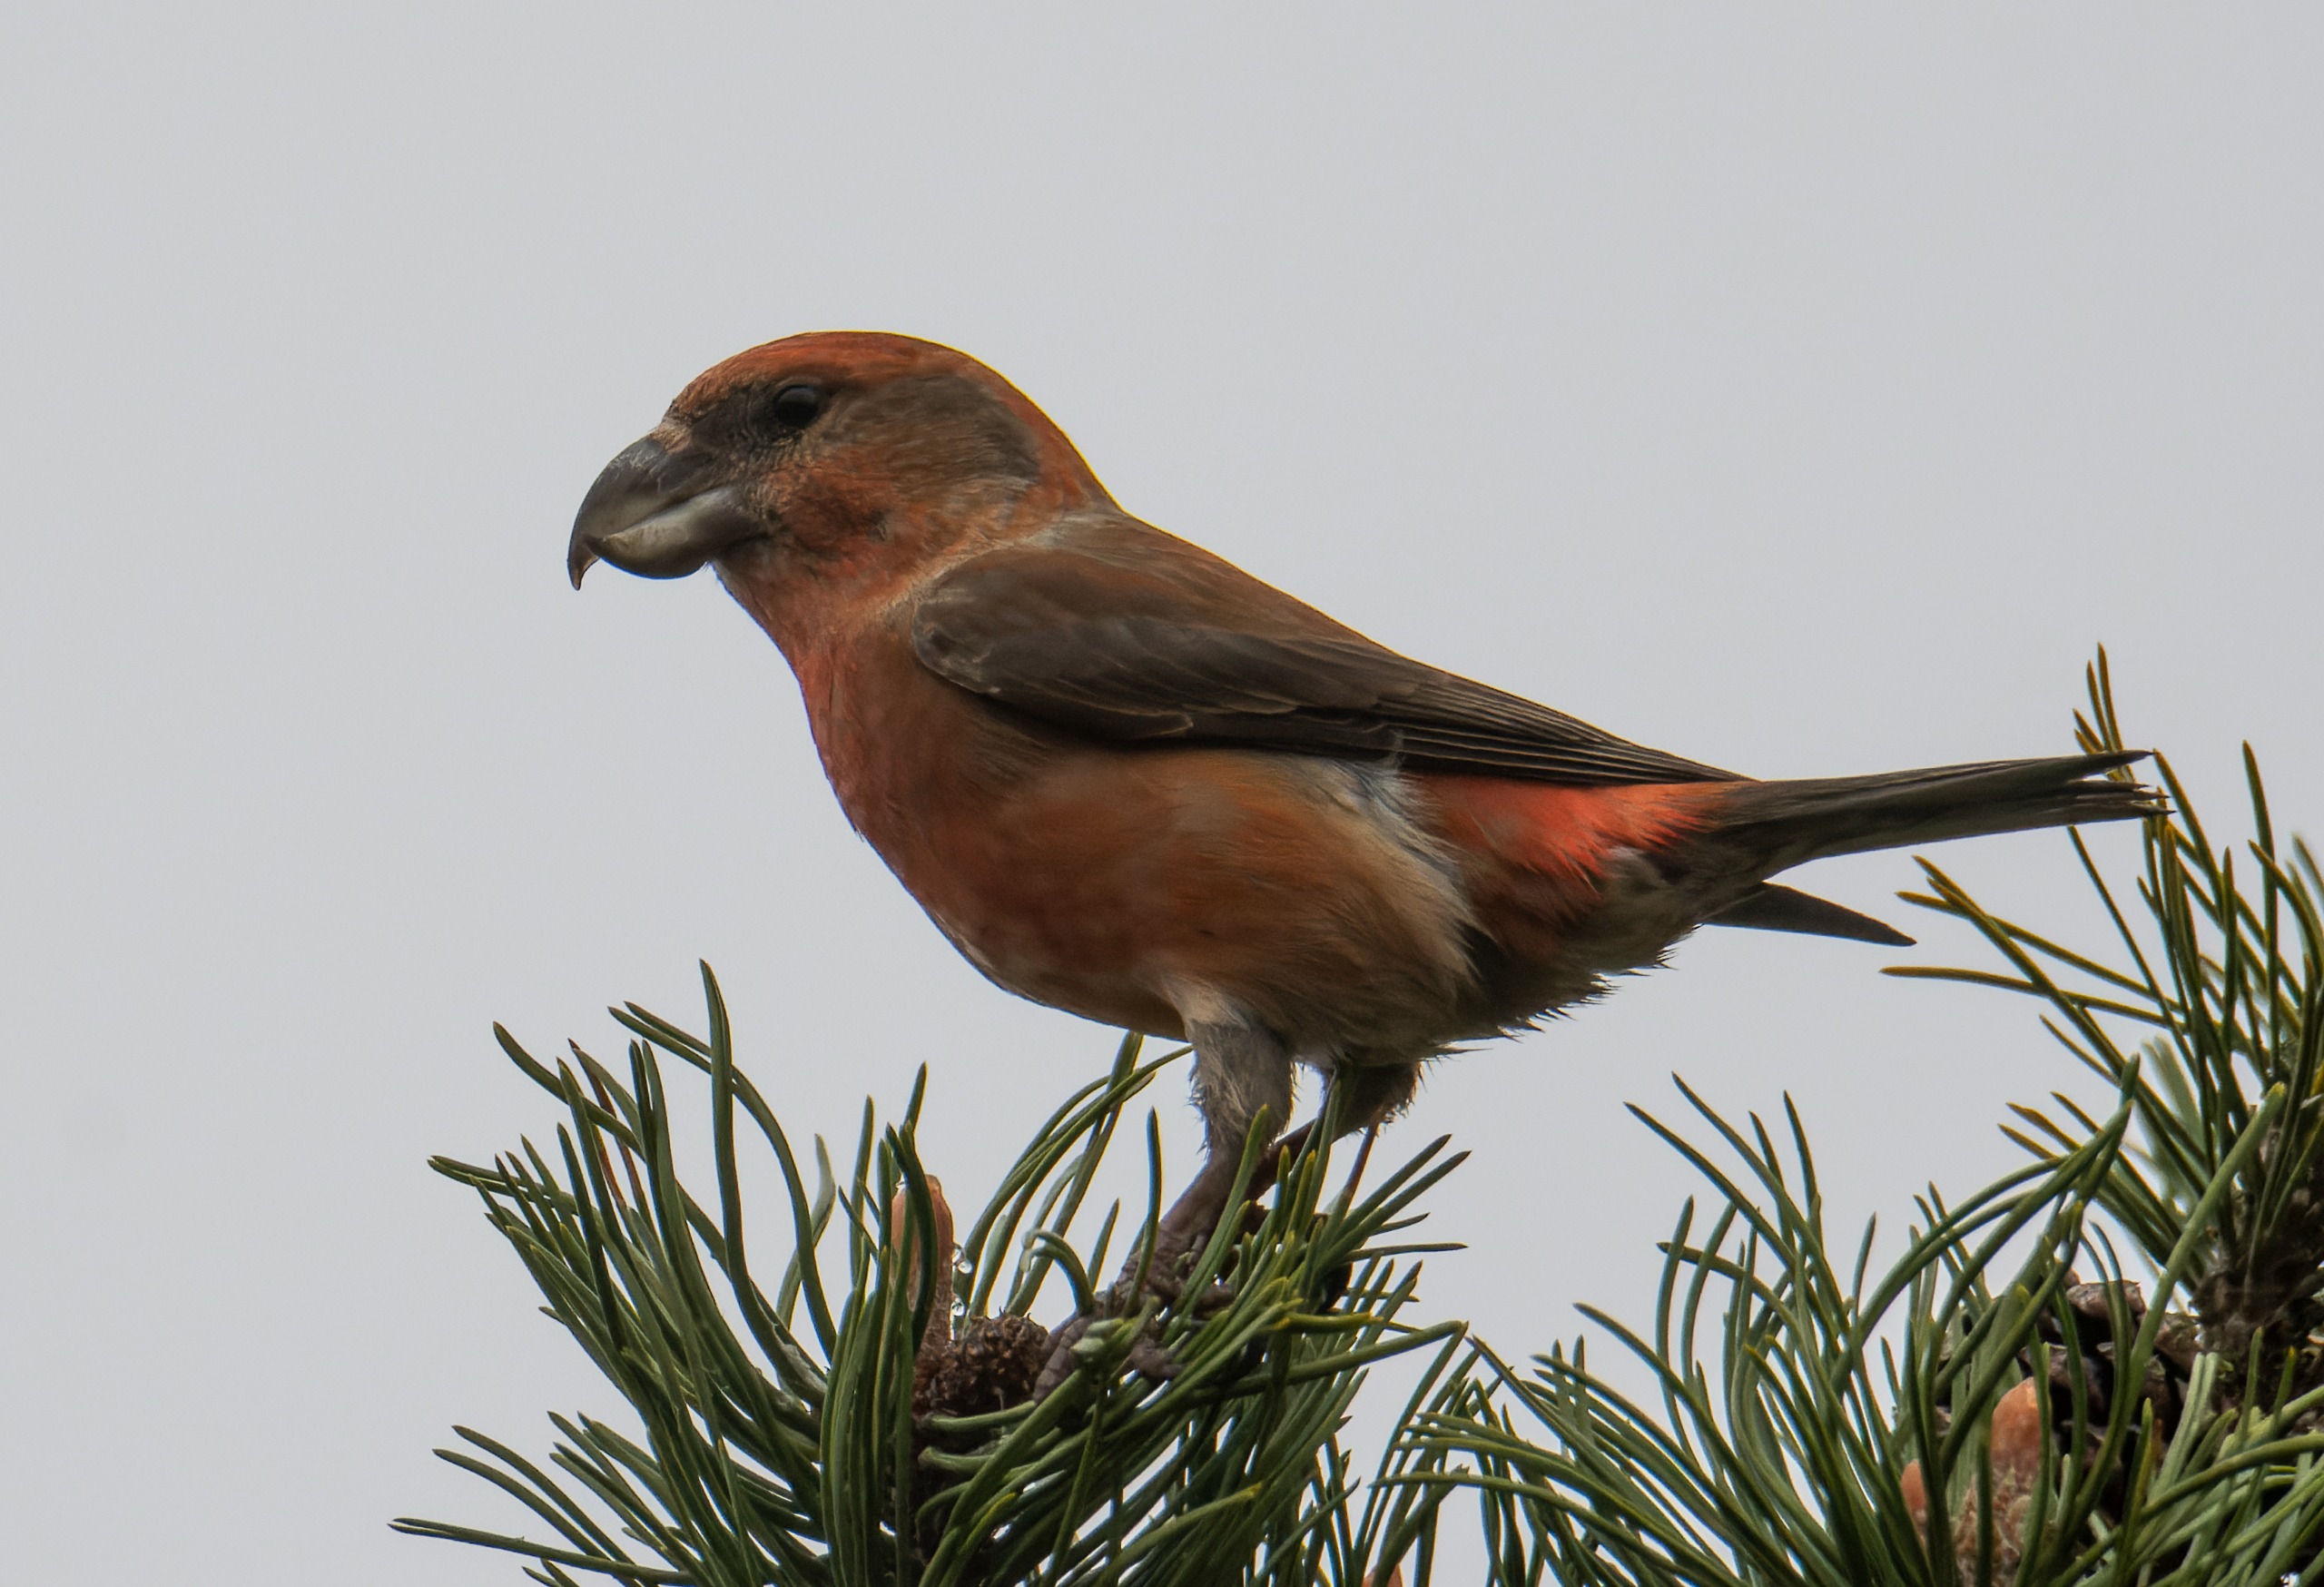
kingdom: Animalia
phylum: Chordata
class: Aves
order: Passeriformes
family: Fringillidae
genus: Loxia
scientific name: Loxia pytyopsittacus
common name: Stor korsnæb
